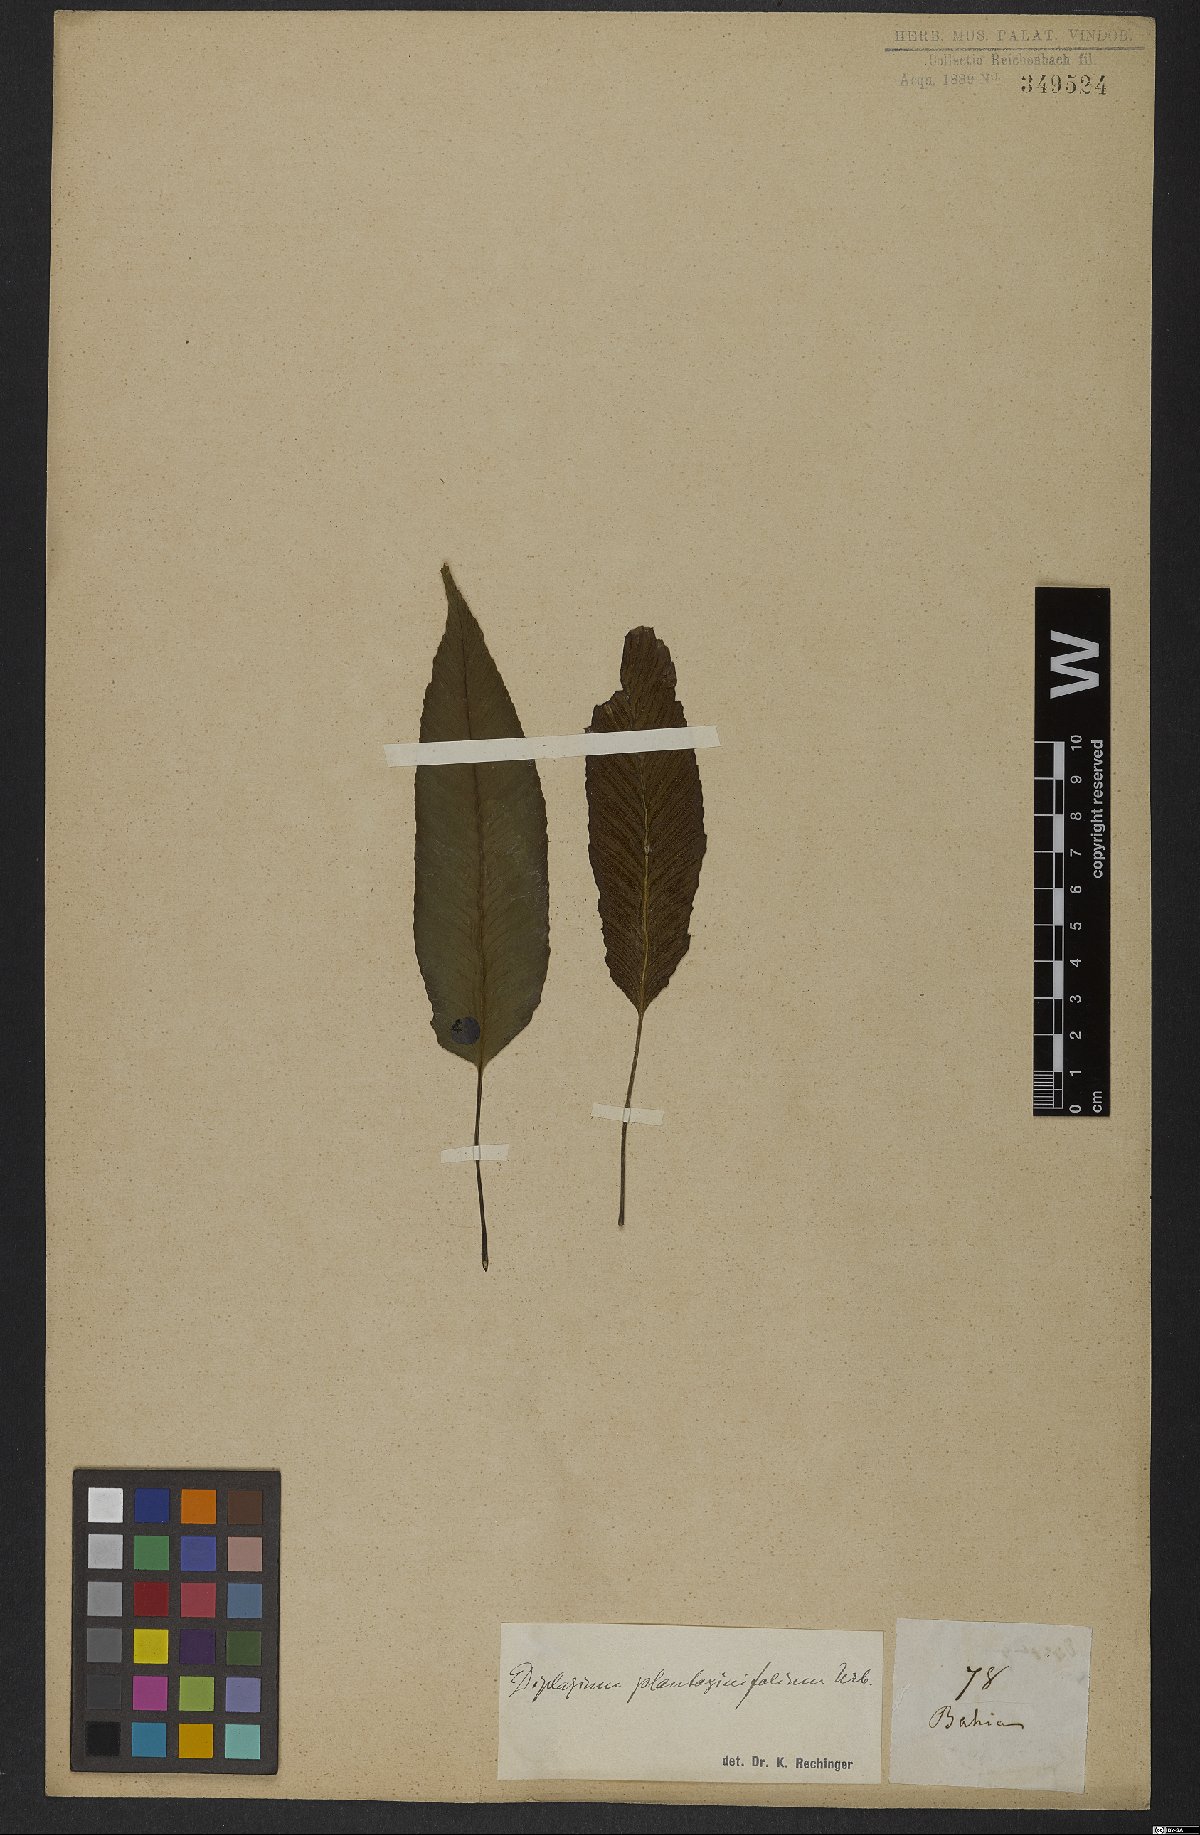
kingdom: Plantae
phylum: Tracheophyta
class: Polypodiopsida
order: Polypodiales
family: Athyriaceae
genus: Diplazium
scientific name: Diplazium plantaginifolium
